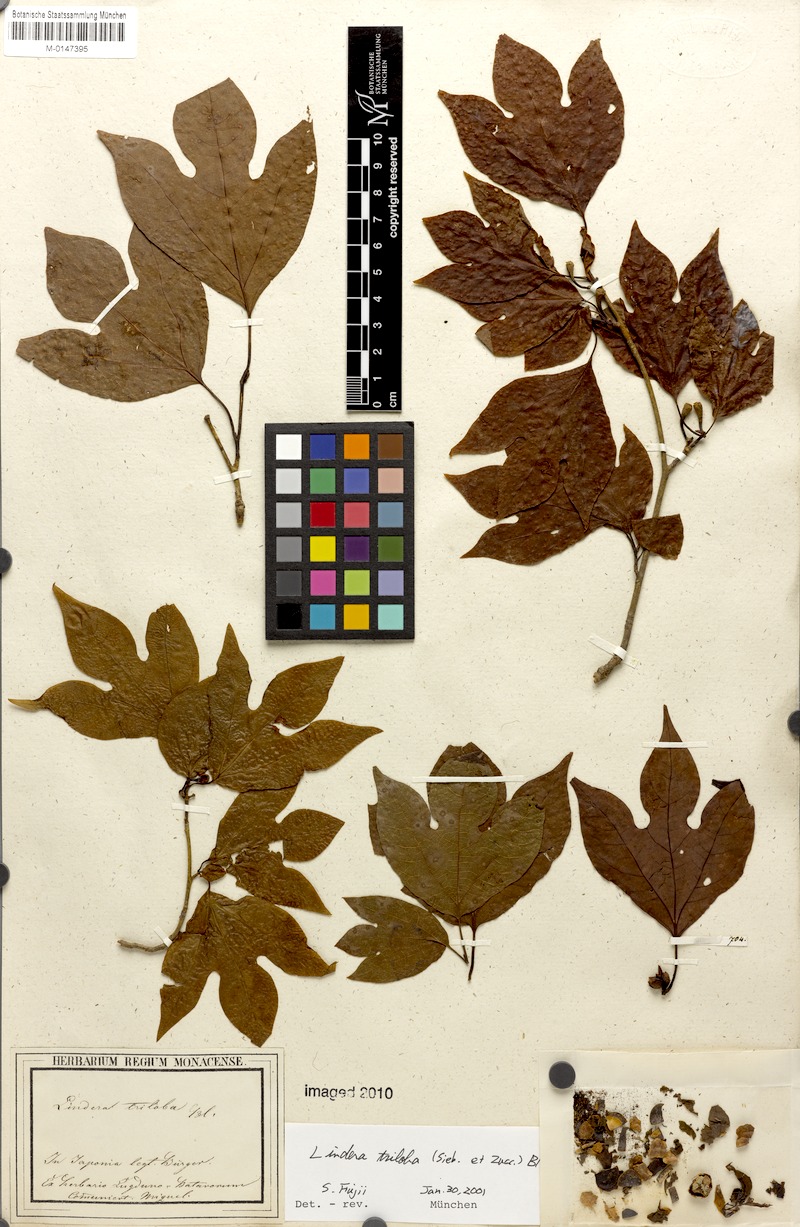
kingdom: Plantae
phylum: Tracheophyta
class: Magnoliopsida
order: Laurales
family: Lauraceae
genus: Lindera
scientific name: Lindera triloba
